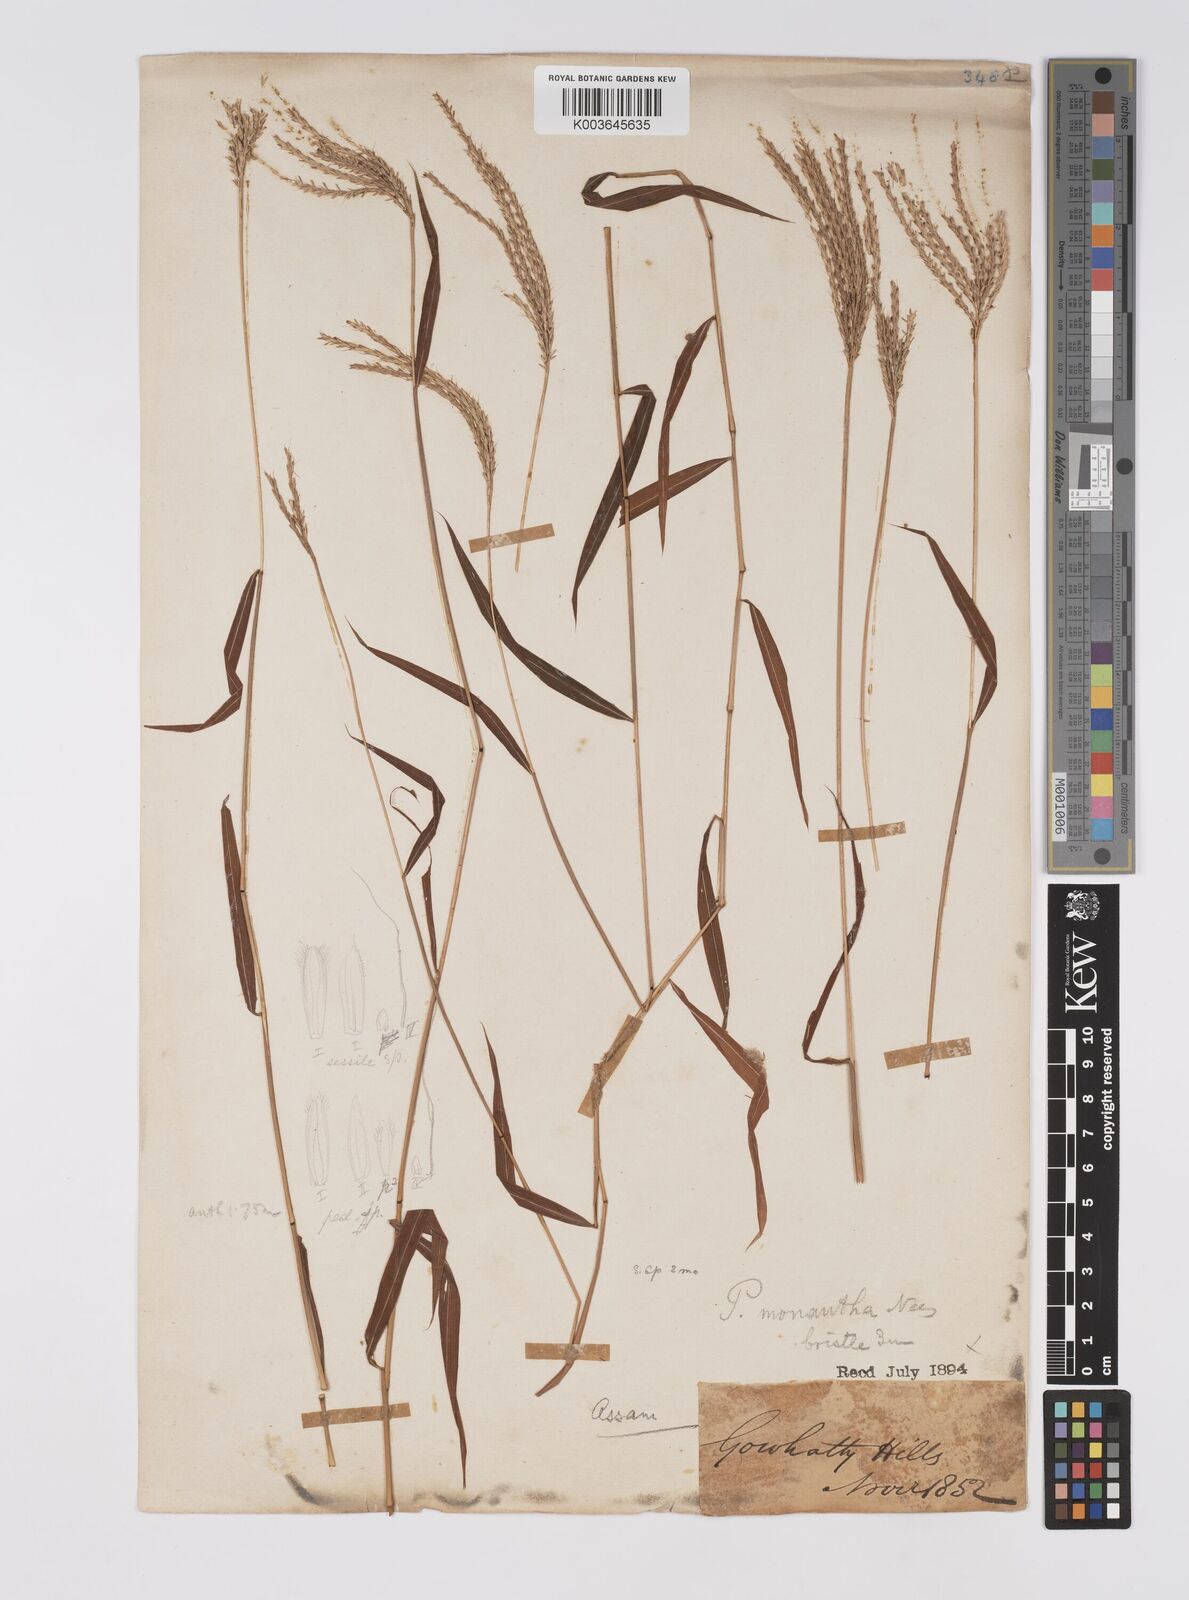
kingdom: Plantae
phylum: Tracheophyta
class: Liliopsida
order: Poales
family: Poaceae
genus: Microstegium
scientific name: Microstegium fasciculatum
